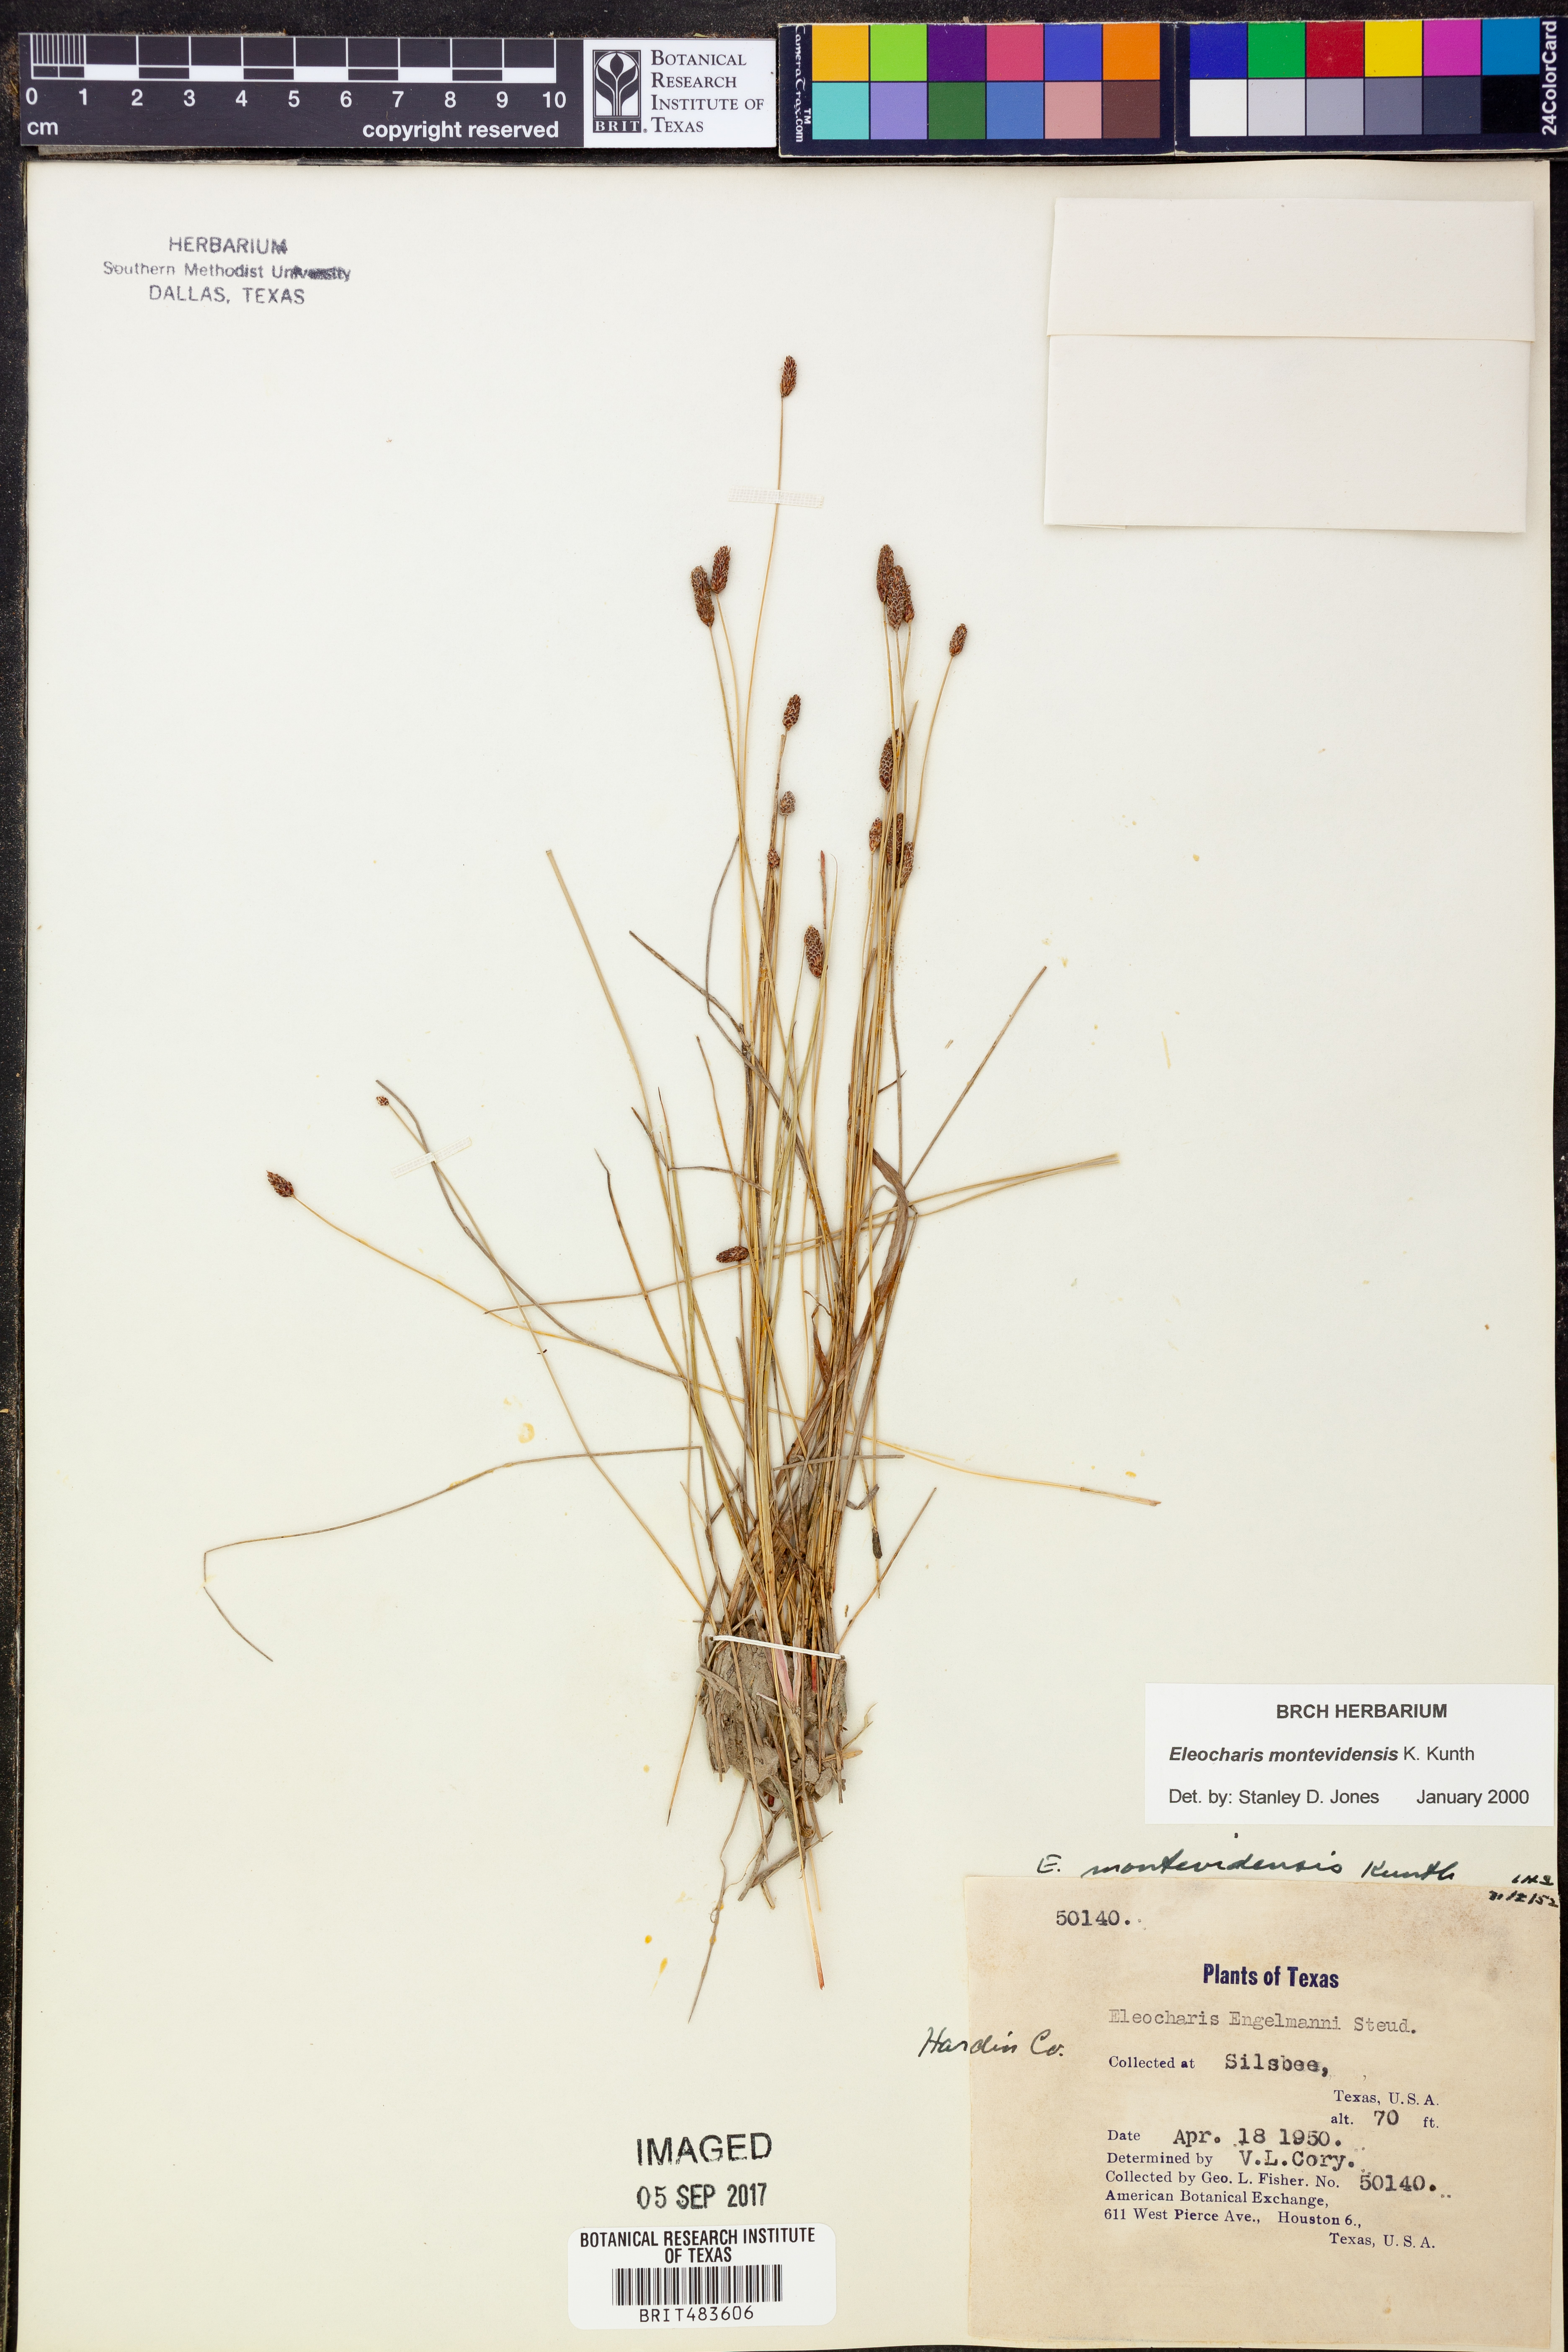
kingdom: Plantae
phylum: Tracheophyta
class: Liliopsida
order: Poales
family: Cyperaceae
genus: Eleocharis
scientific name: Eleocharis montevidensis
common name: Sand spike-rush
